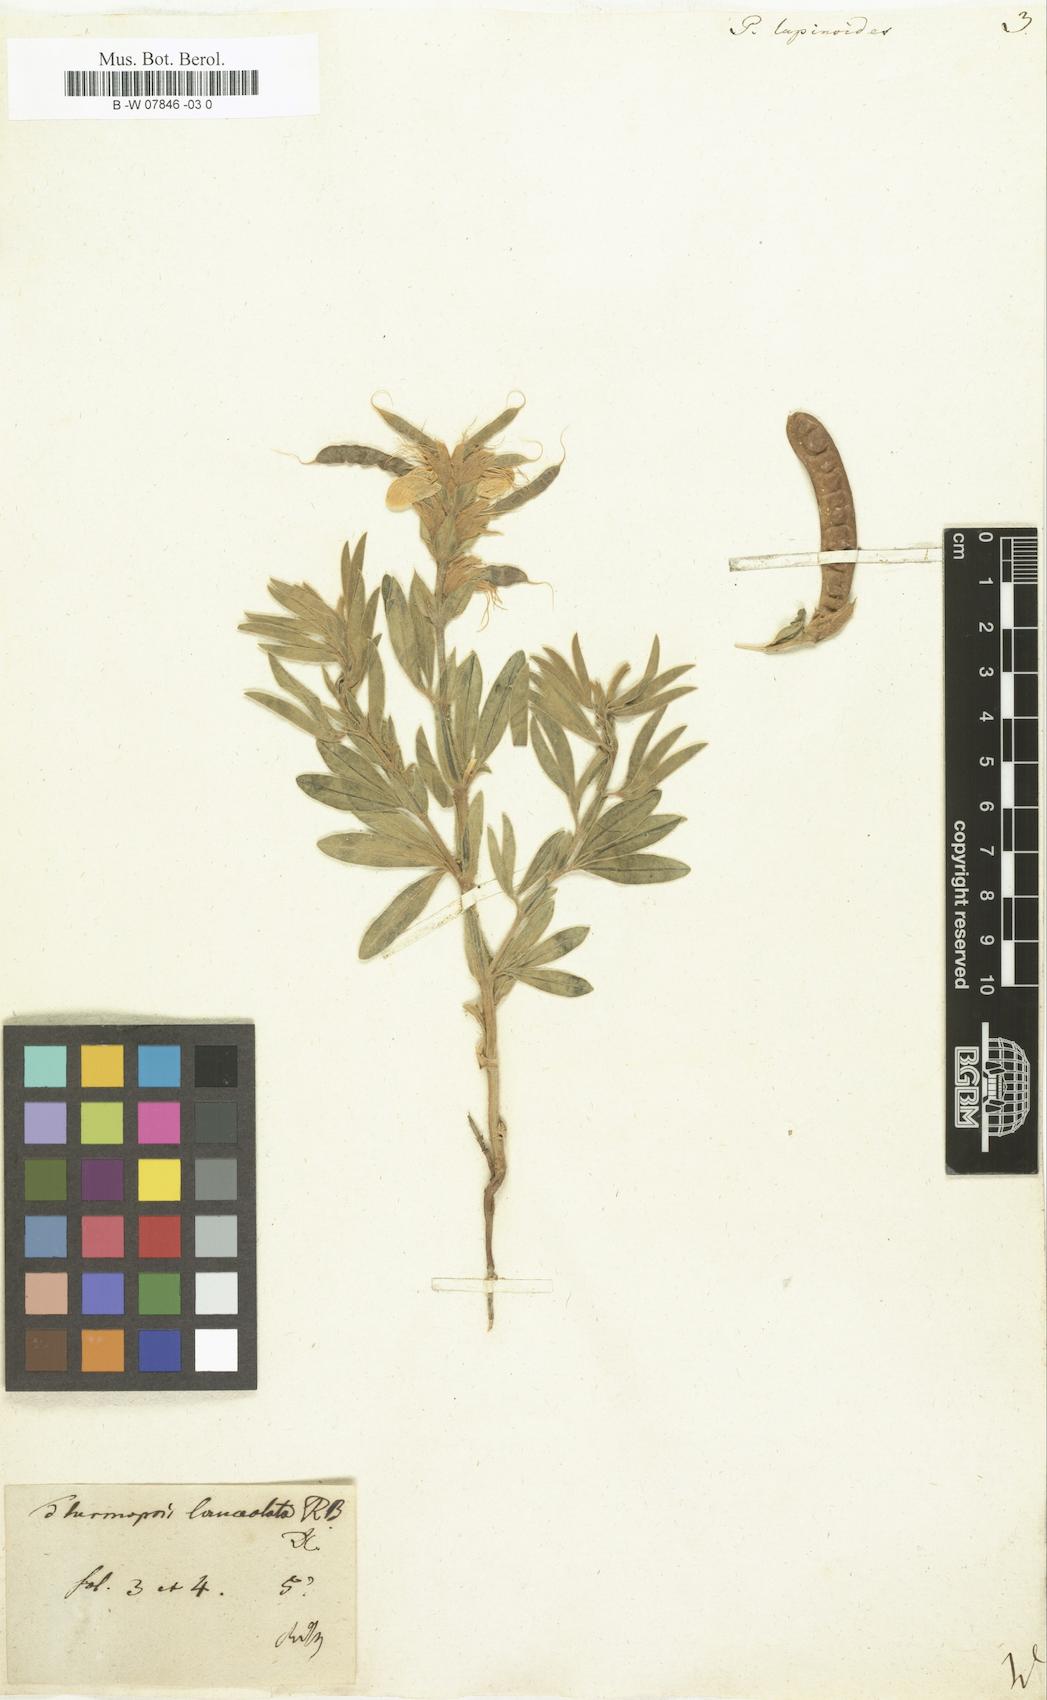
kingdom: Plantae
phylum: Tracheophyta
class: Magnoliopsida
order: Fabales
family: Fabaceae
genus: Thermopsis
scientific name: Thermopsis lanceolata
